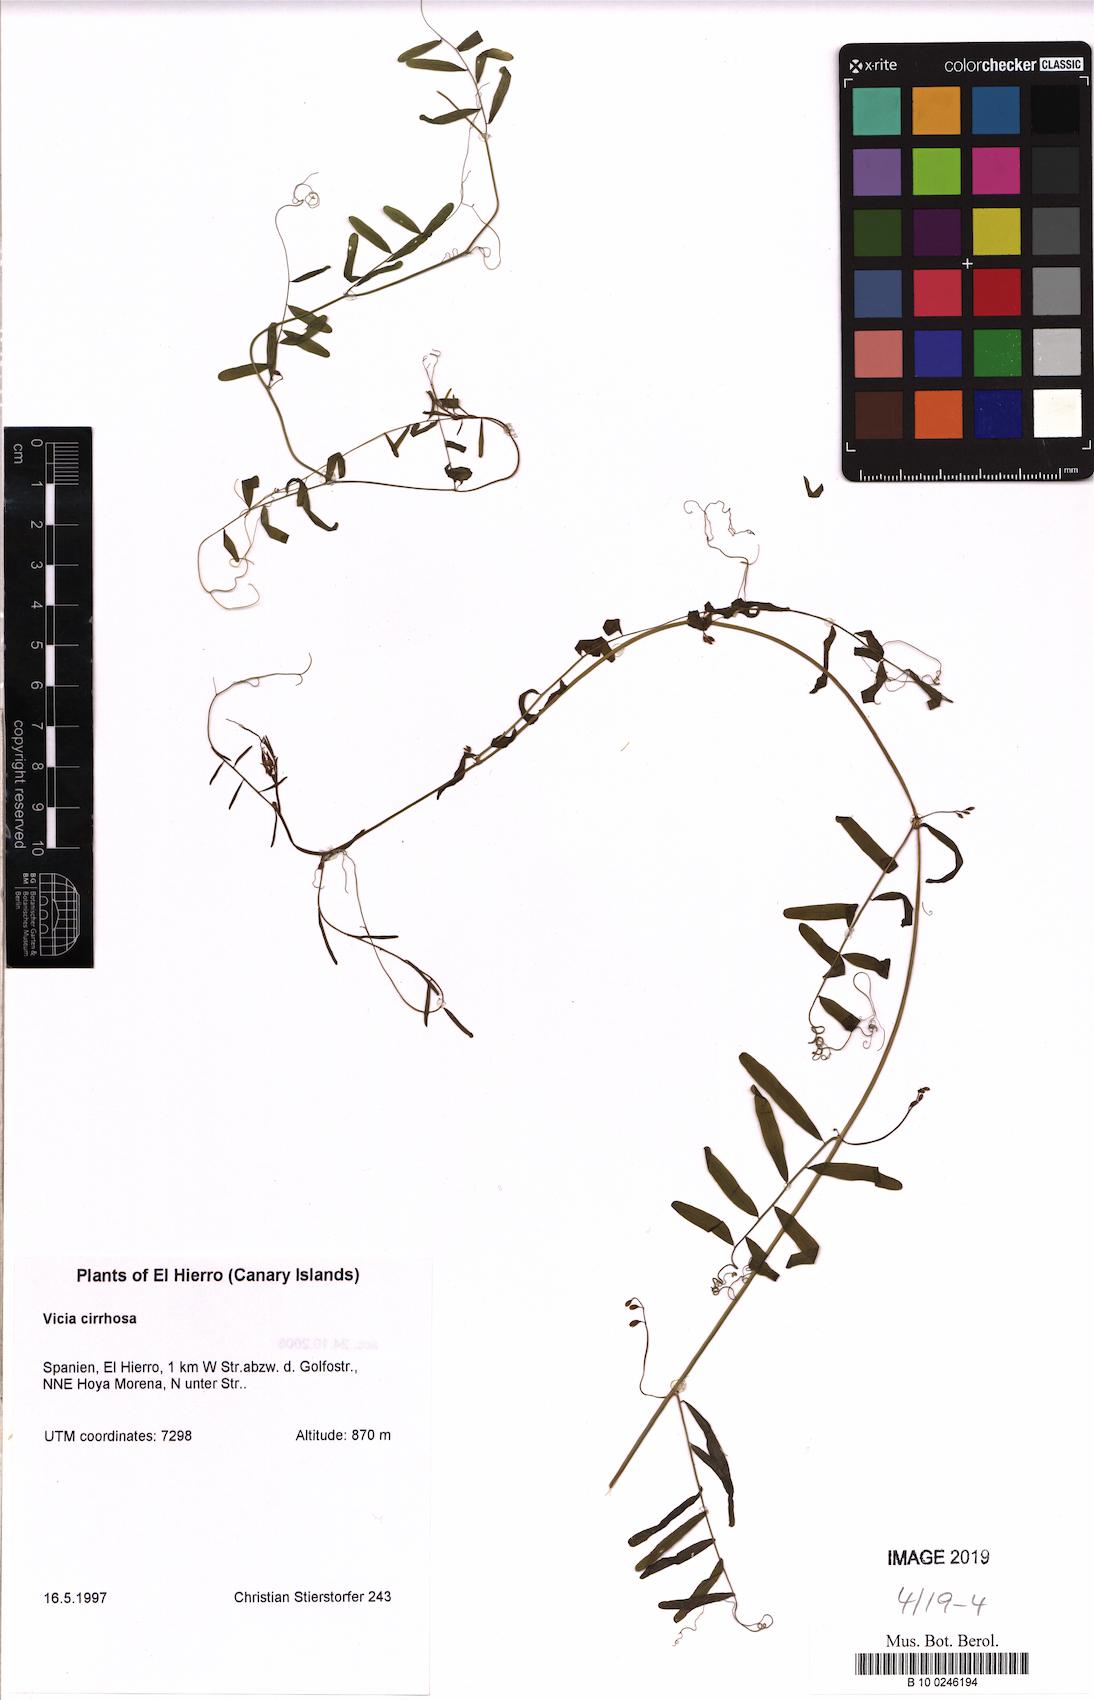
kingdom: Plantae
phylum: Tracheophyta
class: Magnoliopsida
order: Fabales
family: Fabaceae
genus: Vicia
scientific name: Vicia aphylla
